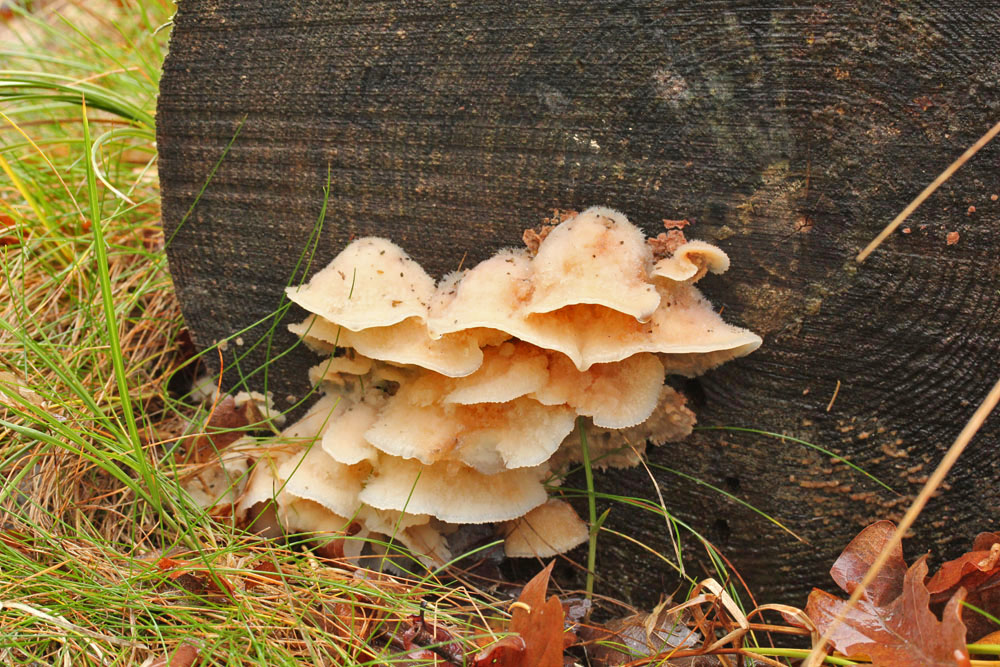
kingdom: Fungi
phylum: Basidiomycota
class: Agaricomycetes
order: Polyporales
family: Meruliaceae
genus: Phlebia
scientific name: Phlebia tremellosa
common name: bævrende åresvamp
